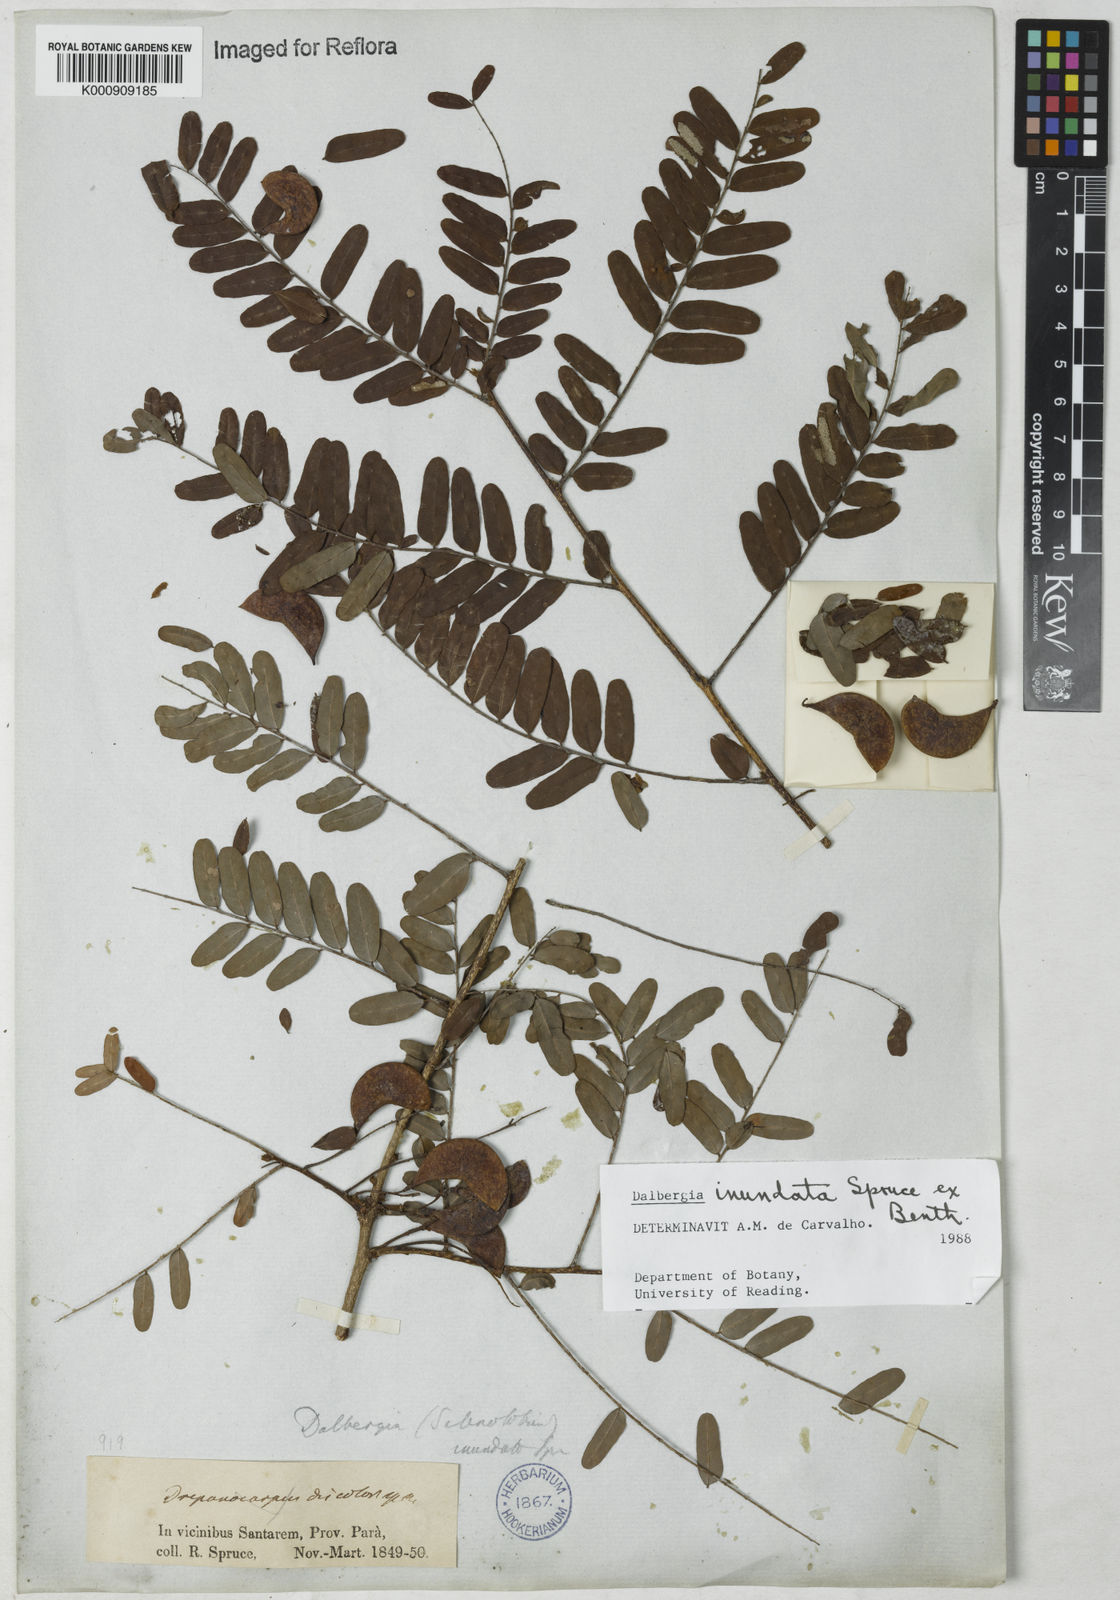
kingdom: Plantae
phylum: Tracheophyta
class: Magnoliopsida
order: Fabales
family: Fabaceae
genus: Dalbergia
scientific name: Dalbergia inundata
